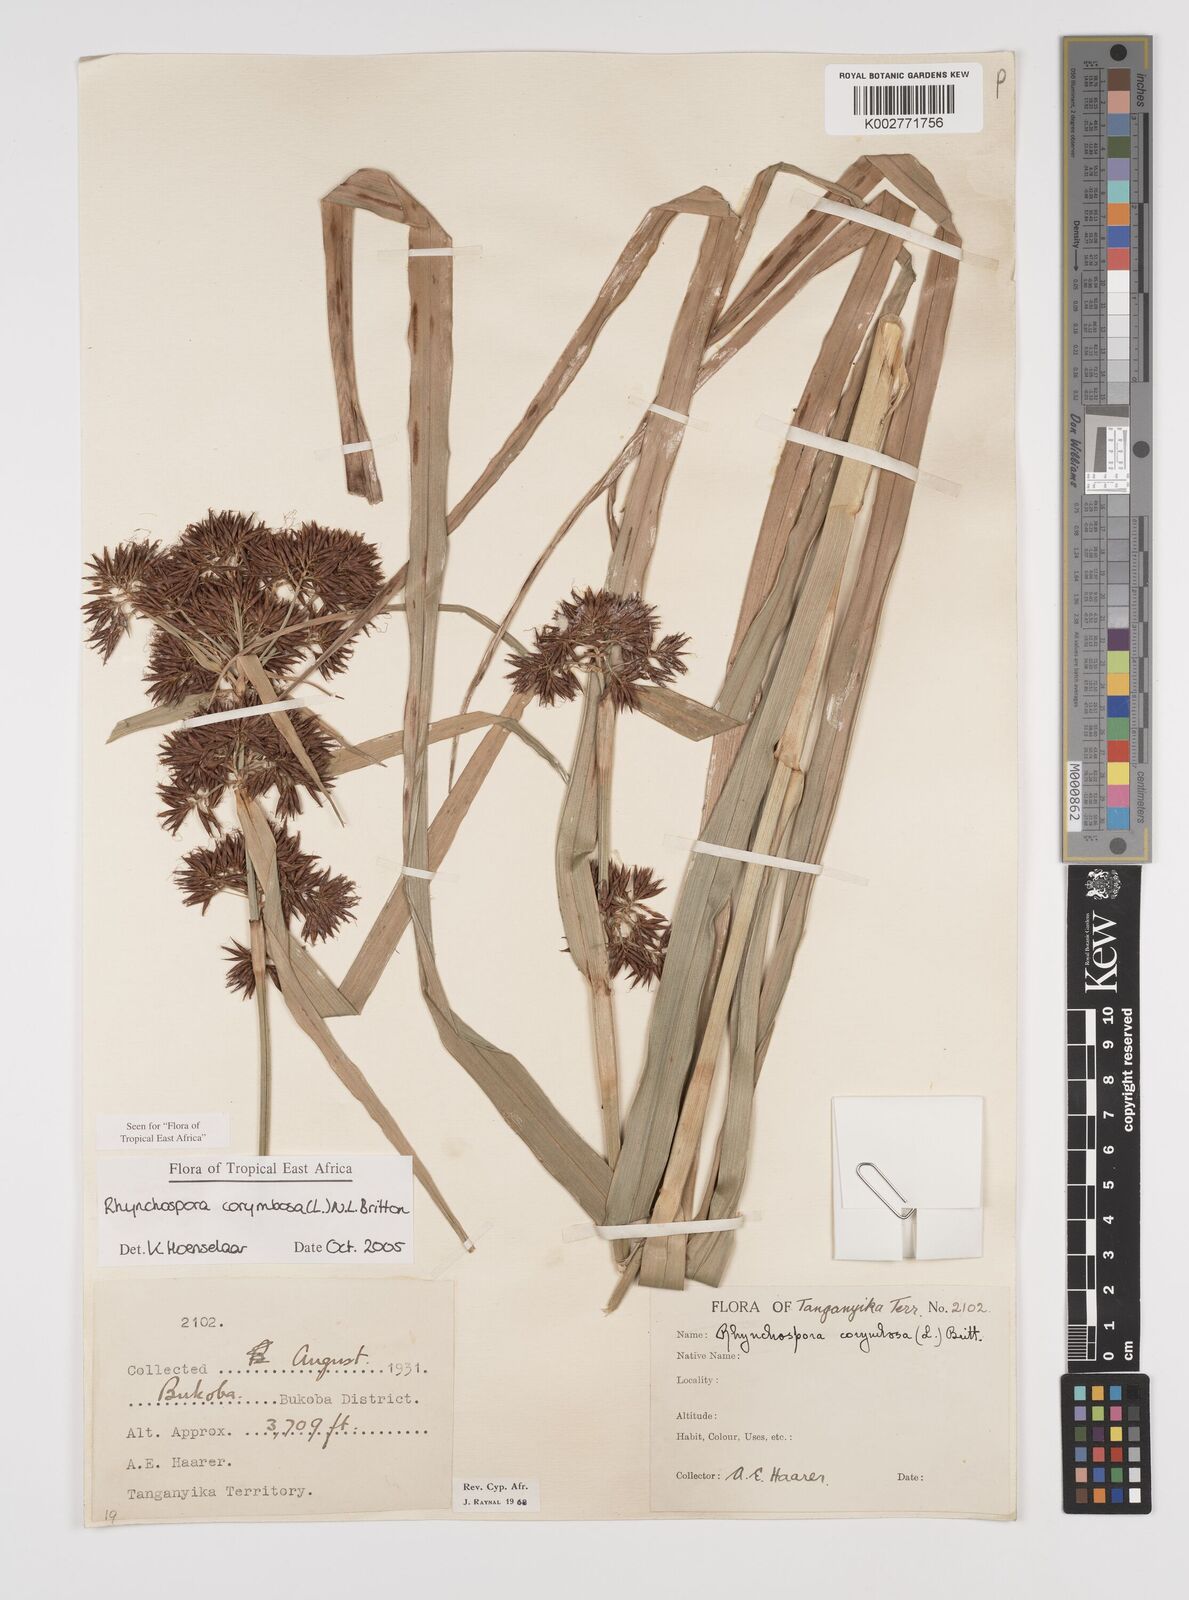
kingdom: Plantae
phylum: Tracheophyta
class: Liliopsida
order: Poales
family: Cyperaceae
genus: Rhynchospora
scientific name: Rhynchospora corymbosa
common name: Golden beak sedge
